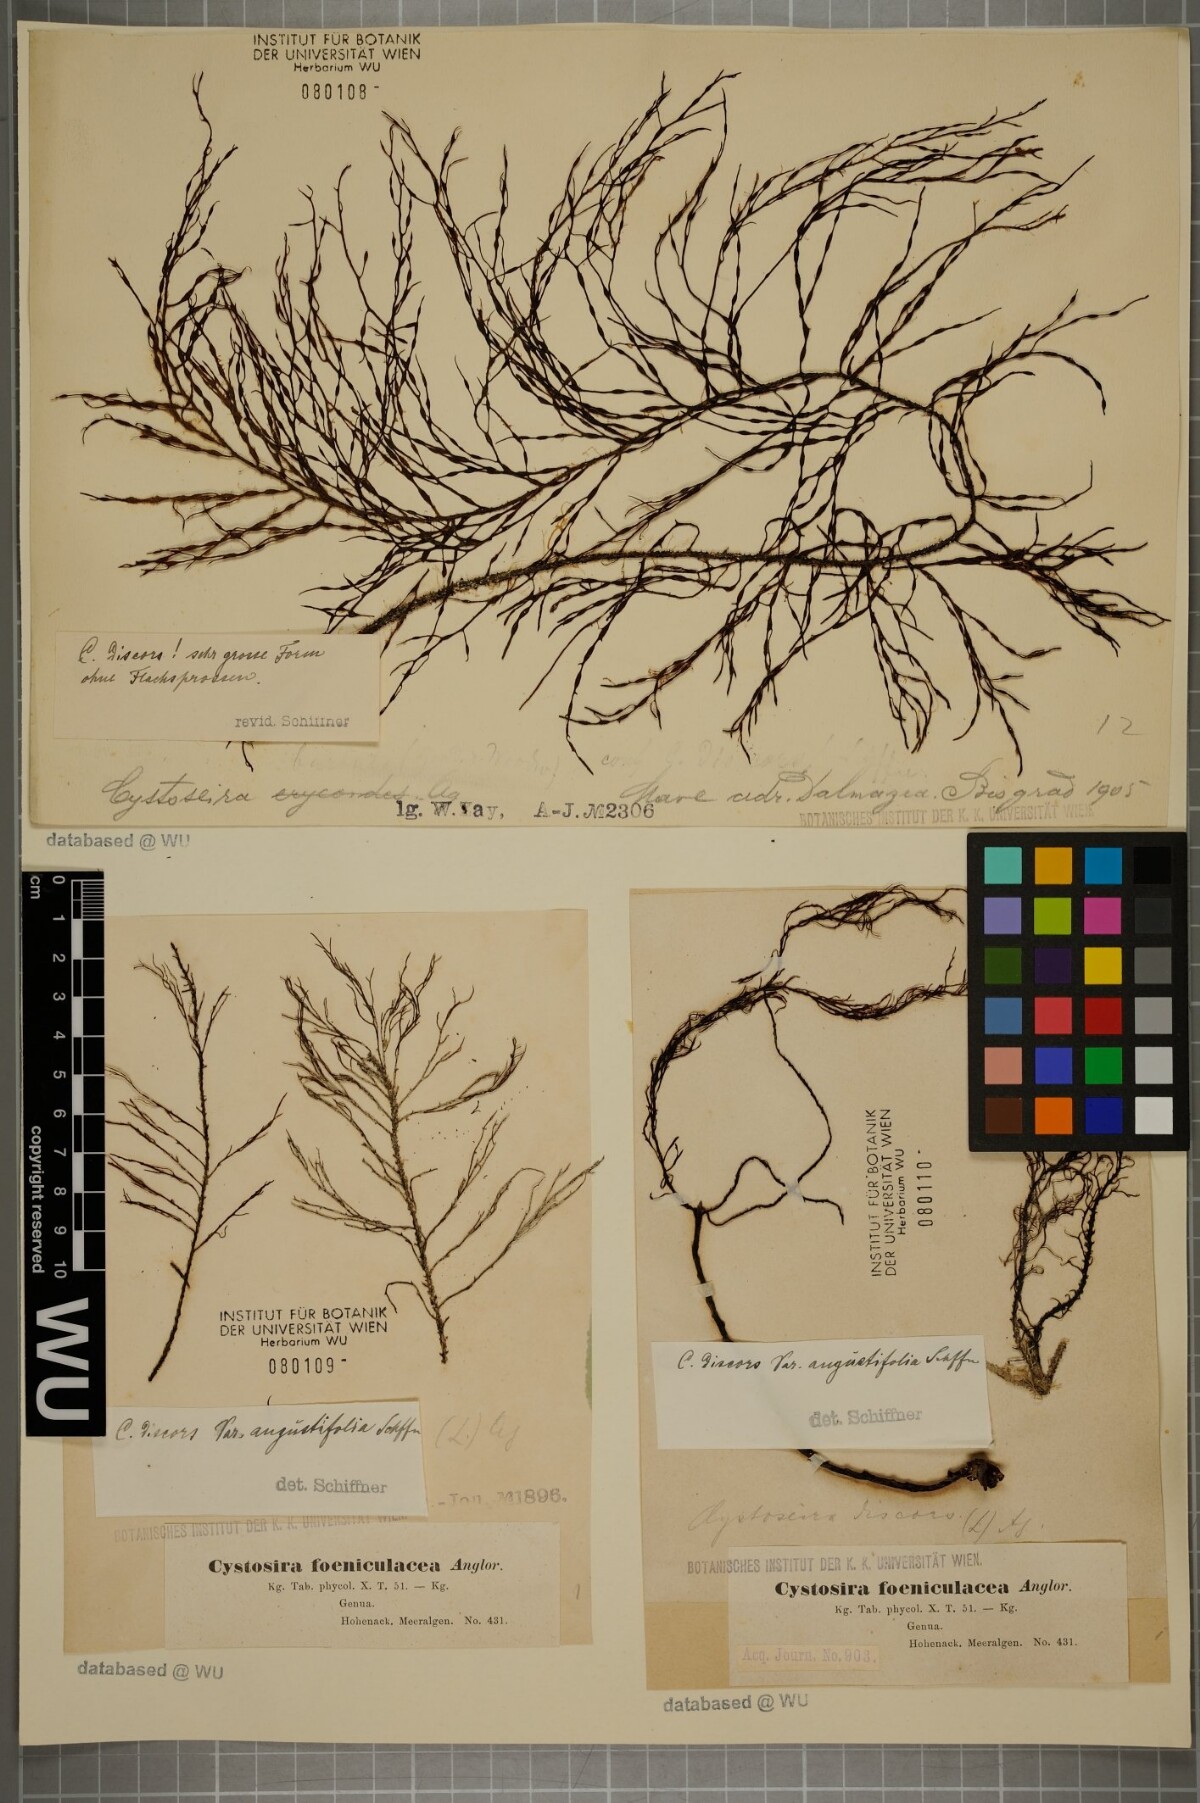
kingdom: Chromista
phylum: Ochrophyta
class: Phaeophyceae
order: Fucales
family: Sargassaceae
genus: Cystoseira
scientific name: Cystoseira foeniculacea
